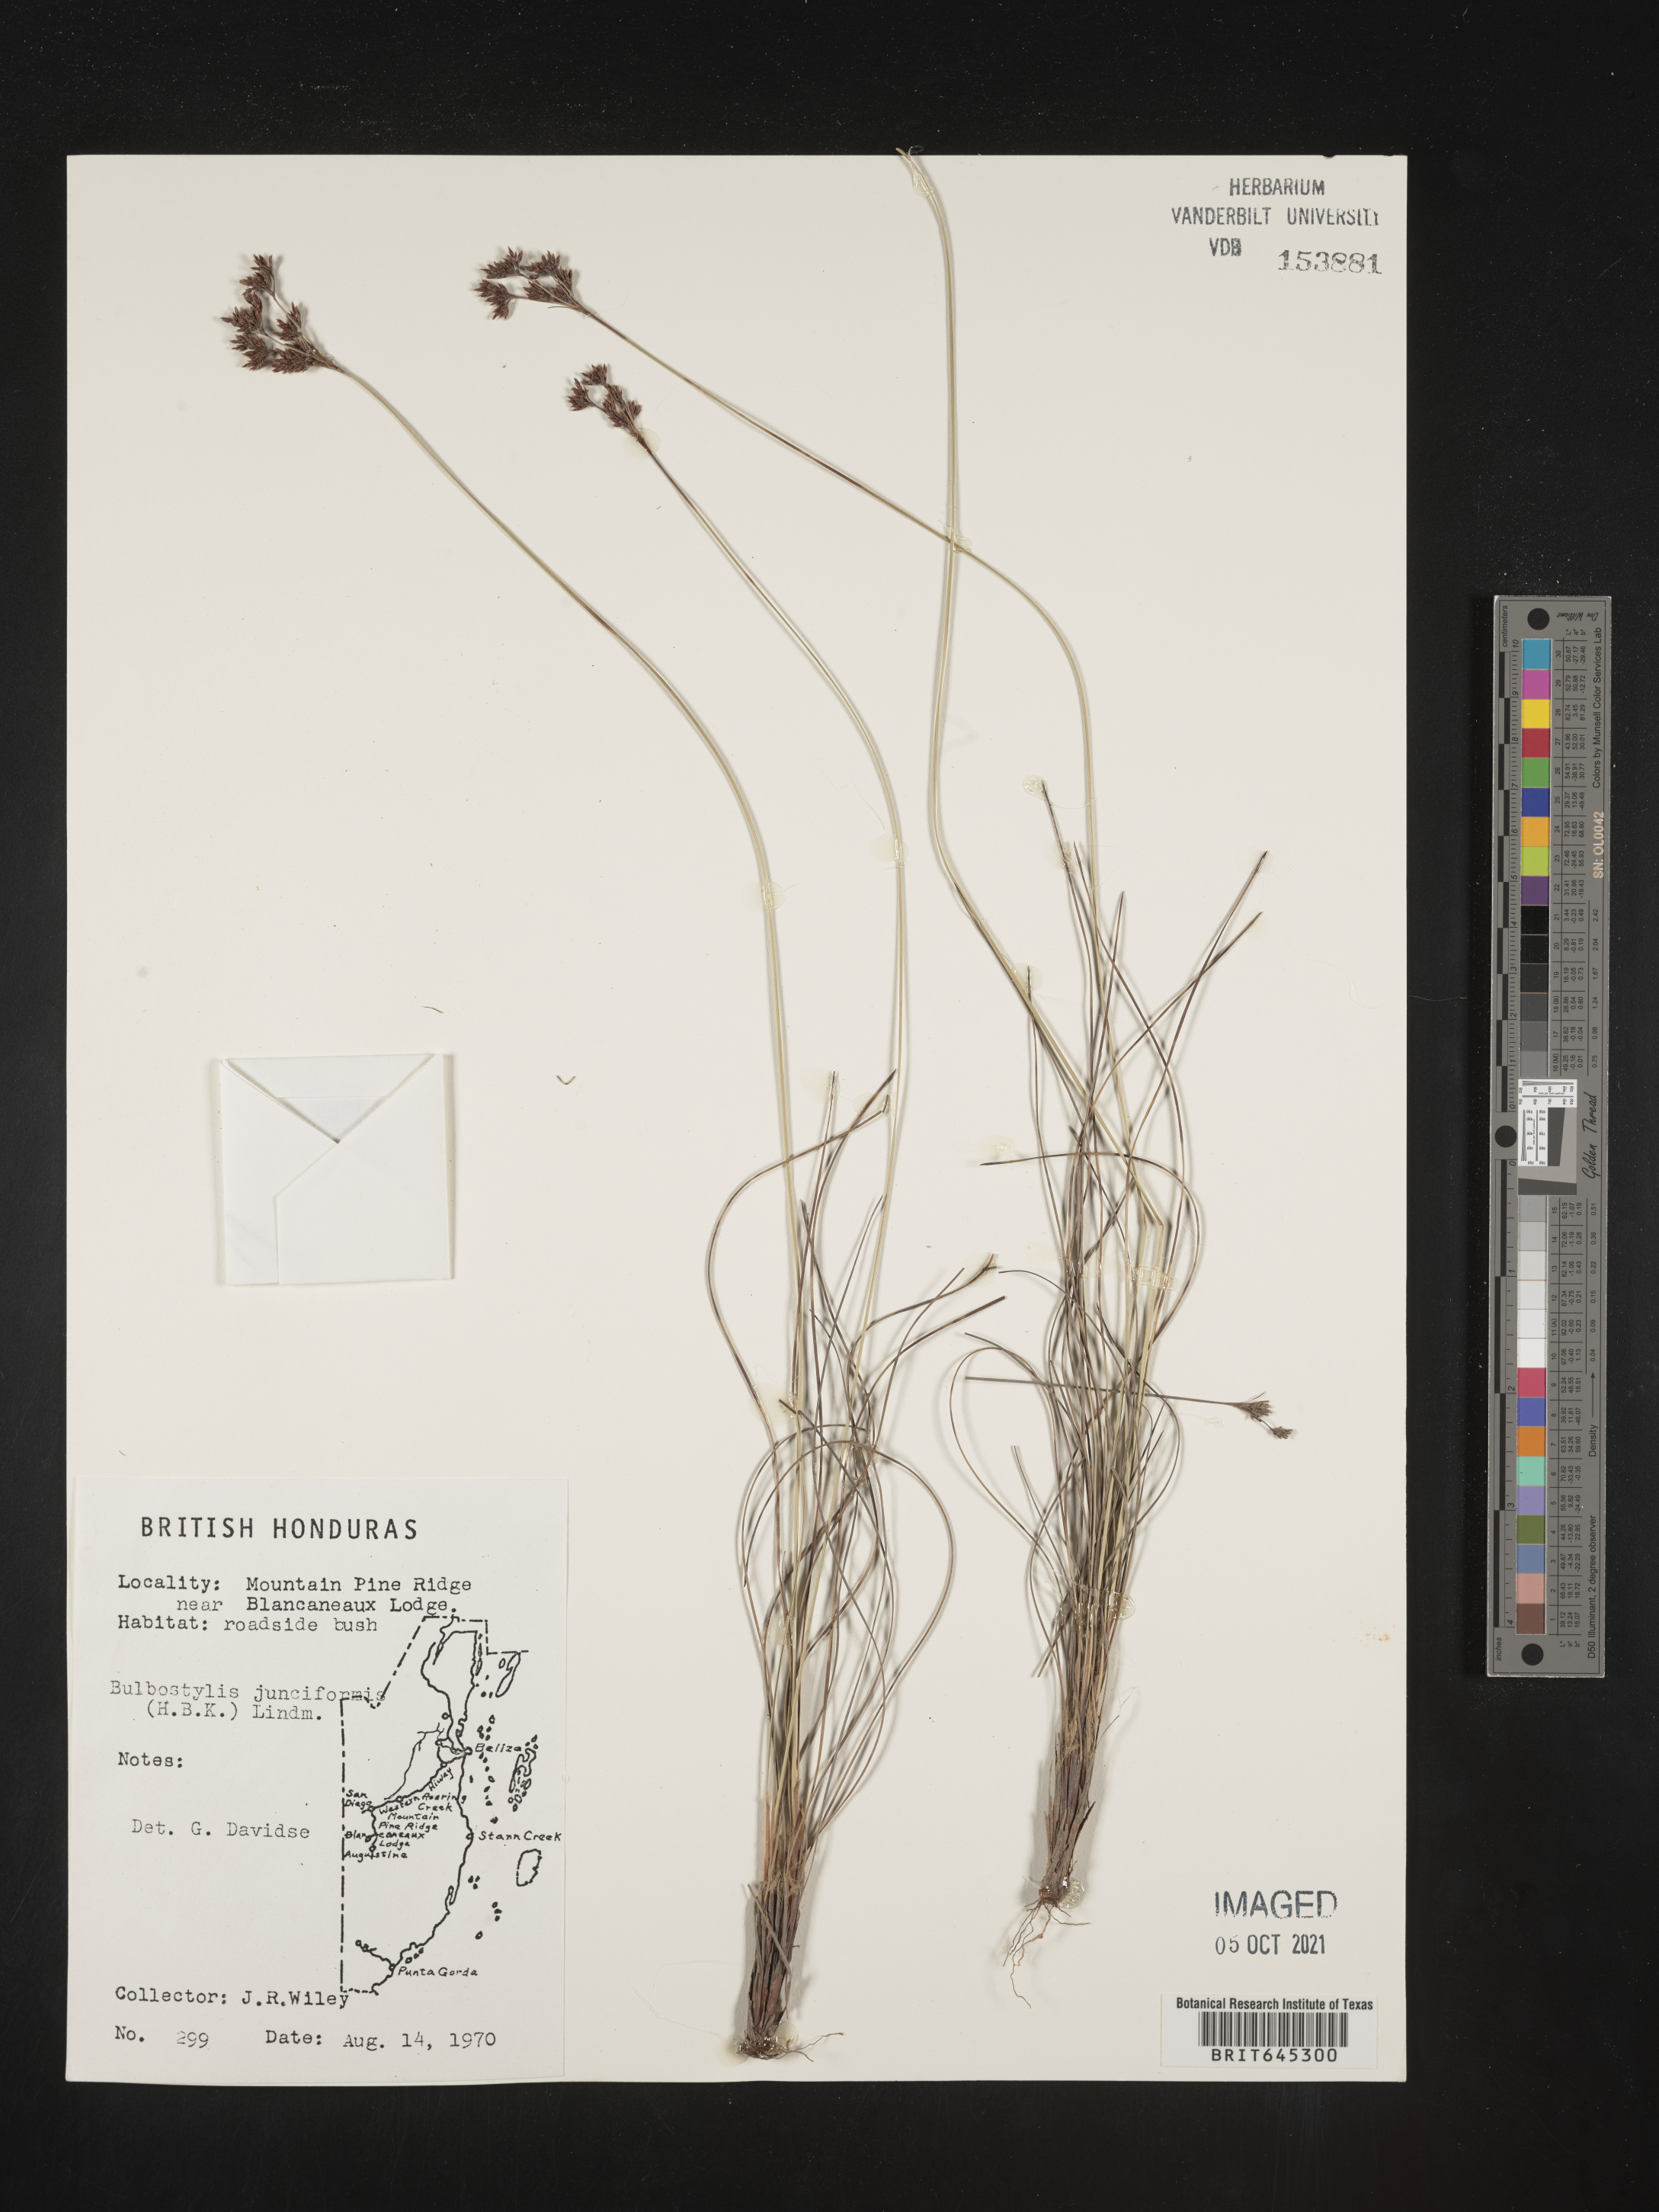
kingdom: Plantae
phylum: Tracheophyta
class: Liliopsida
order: Poales
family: Cyperaceae
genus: Bulbostylis
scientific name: Bulbostylis junciformis
